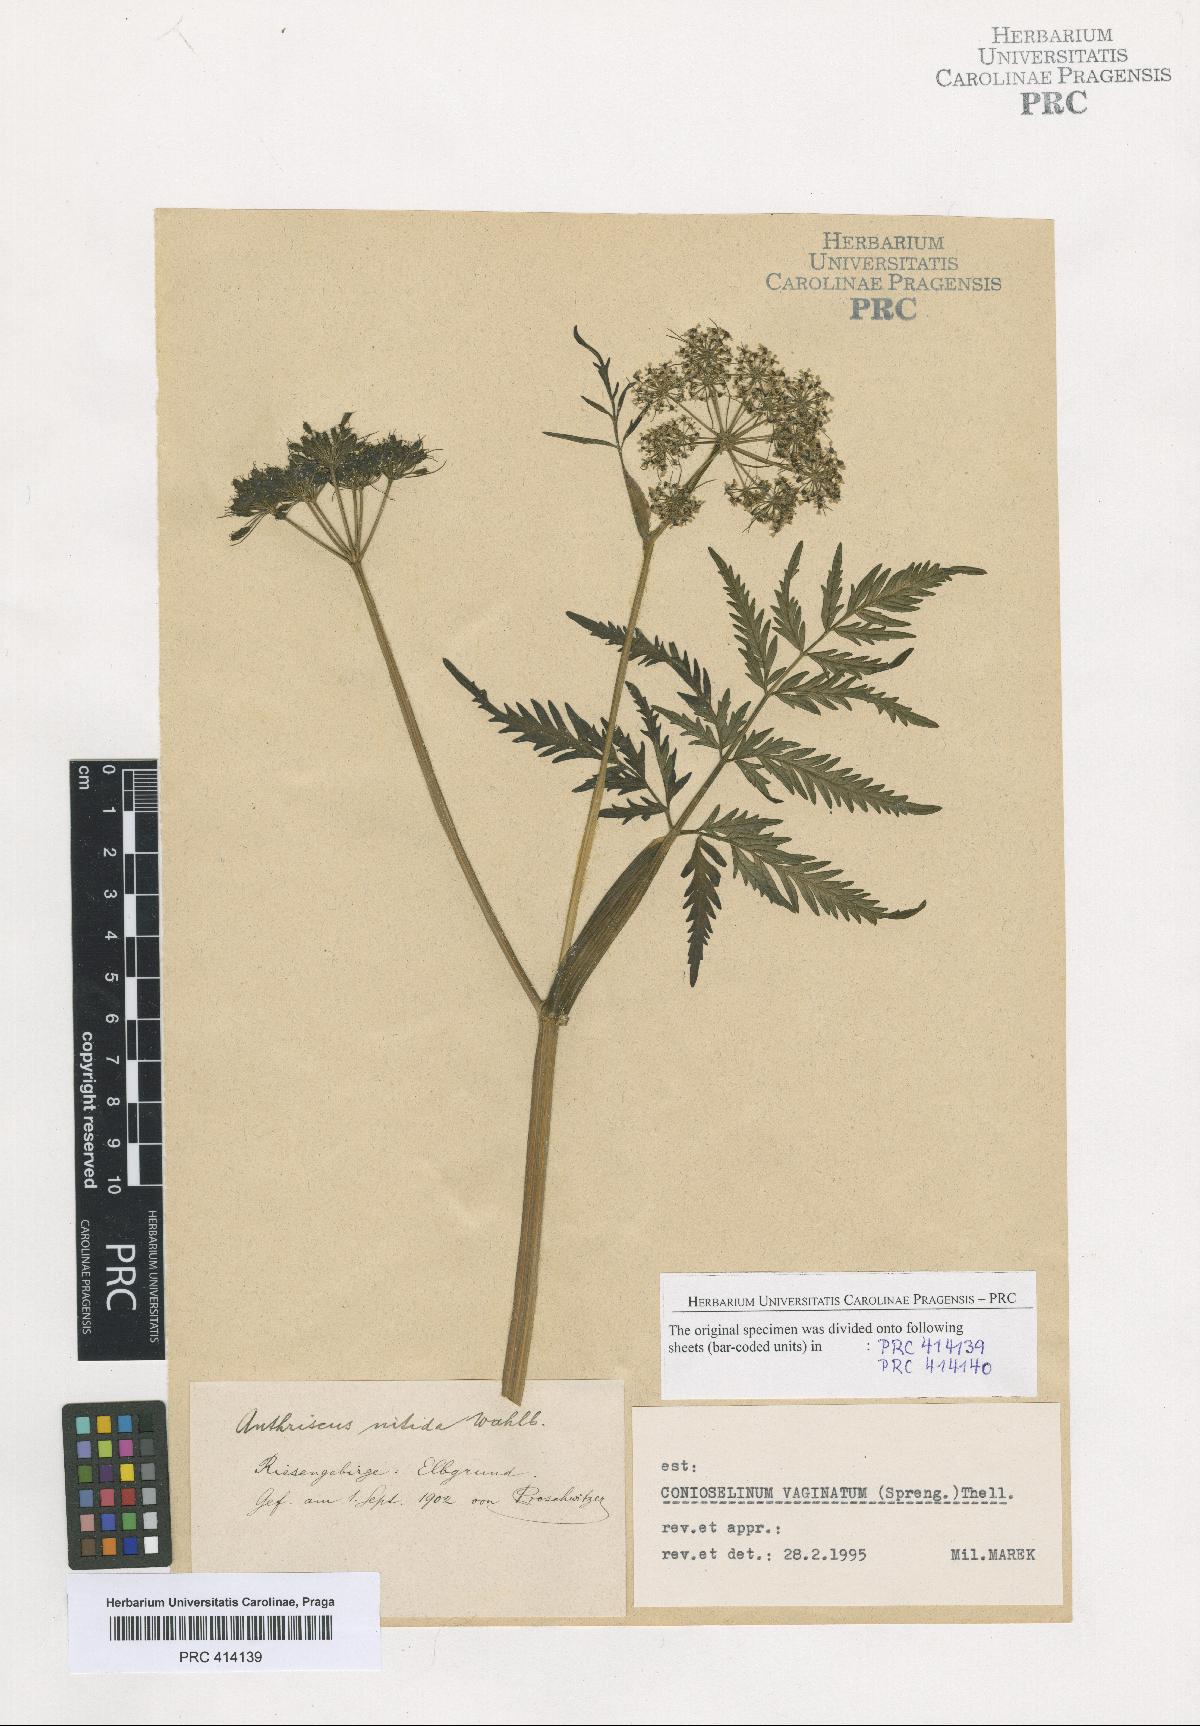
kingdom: Plantae
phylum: Tracheophyta
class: Magnoliopsida
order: Apiales
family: Apiaceae
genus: Seseli
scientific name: Seseli condensatum
